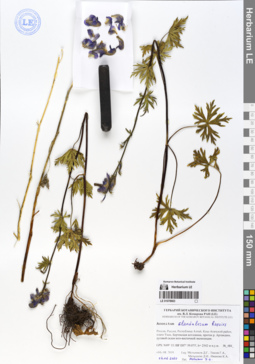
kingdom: Plantae
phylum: Tracheophyta
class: Magnoliopsida
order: Ranunculales
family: Ranunculaceae
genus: Aconitum
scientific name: Aconitum glandulosum
